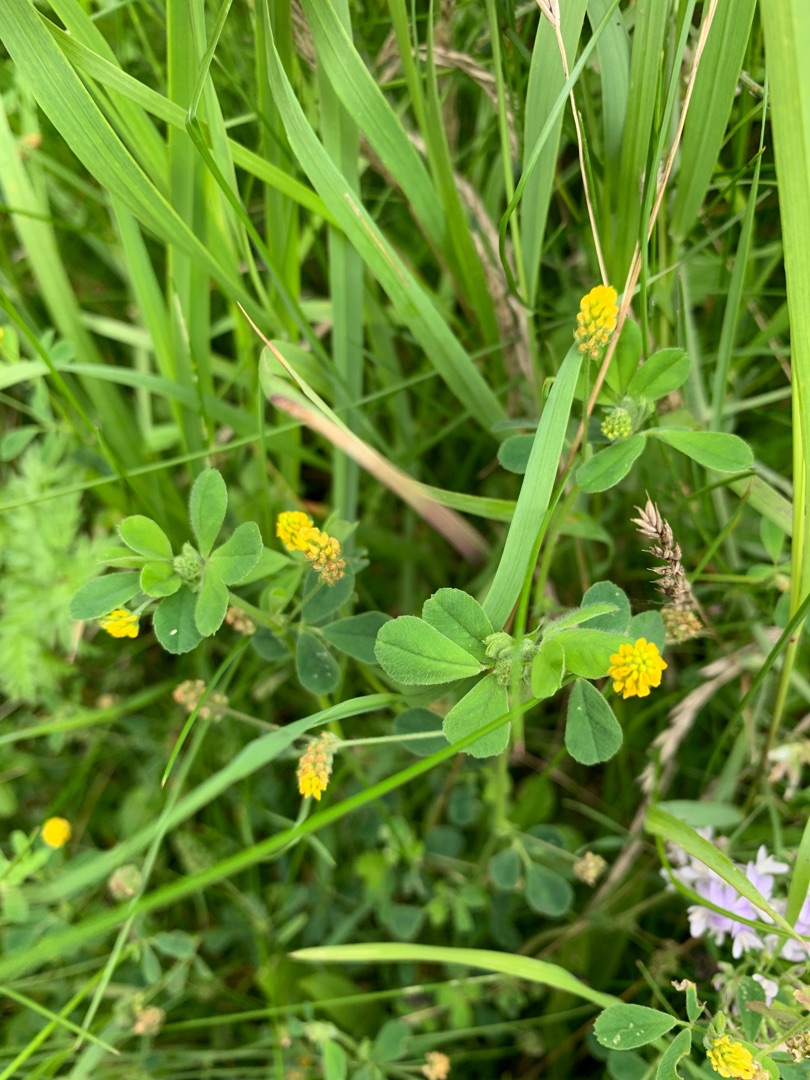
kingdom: Plantae
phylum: Tracheophyta
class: Magnoliopsida
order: Fabales
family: Fabaceae
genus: Medicago
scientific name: Medicago lupulina
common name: Humle-sneglebælg
